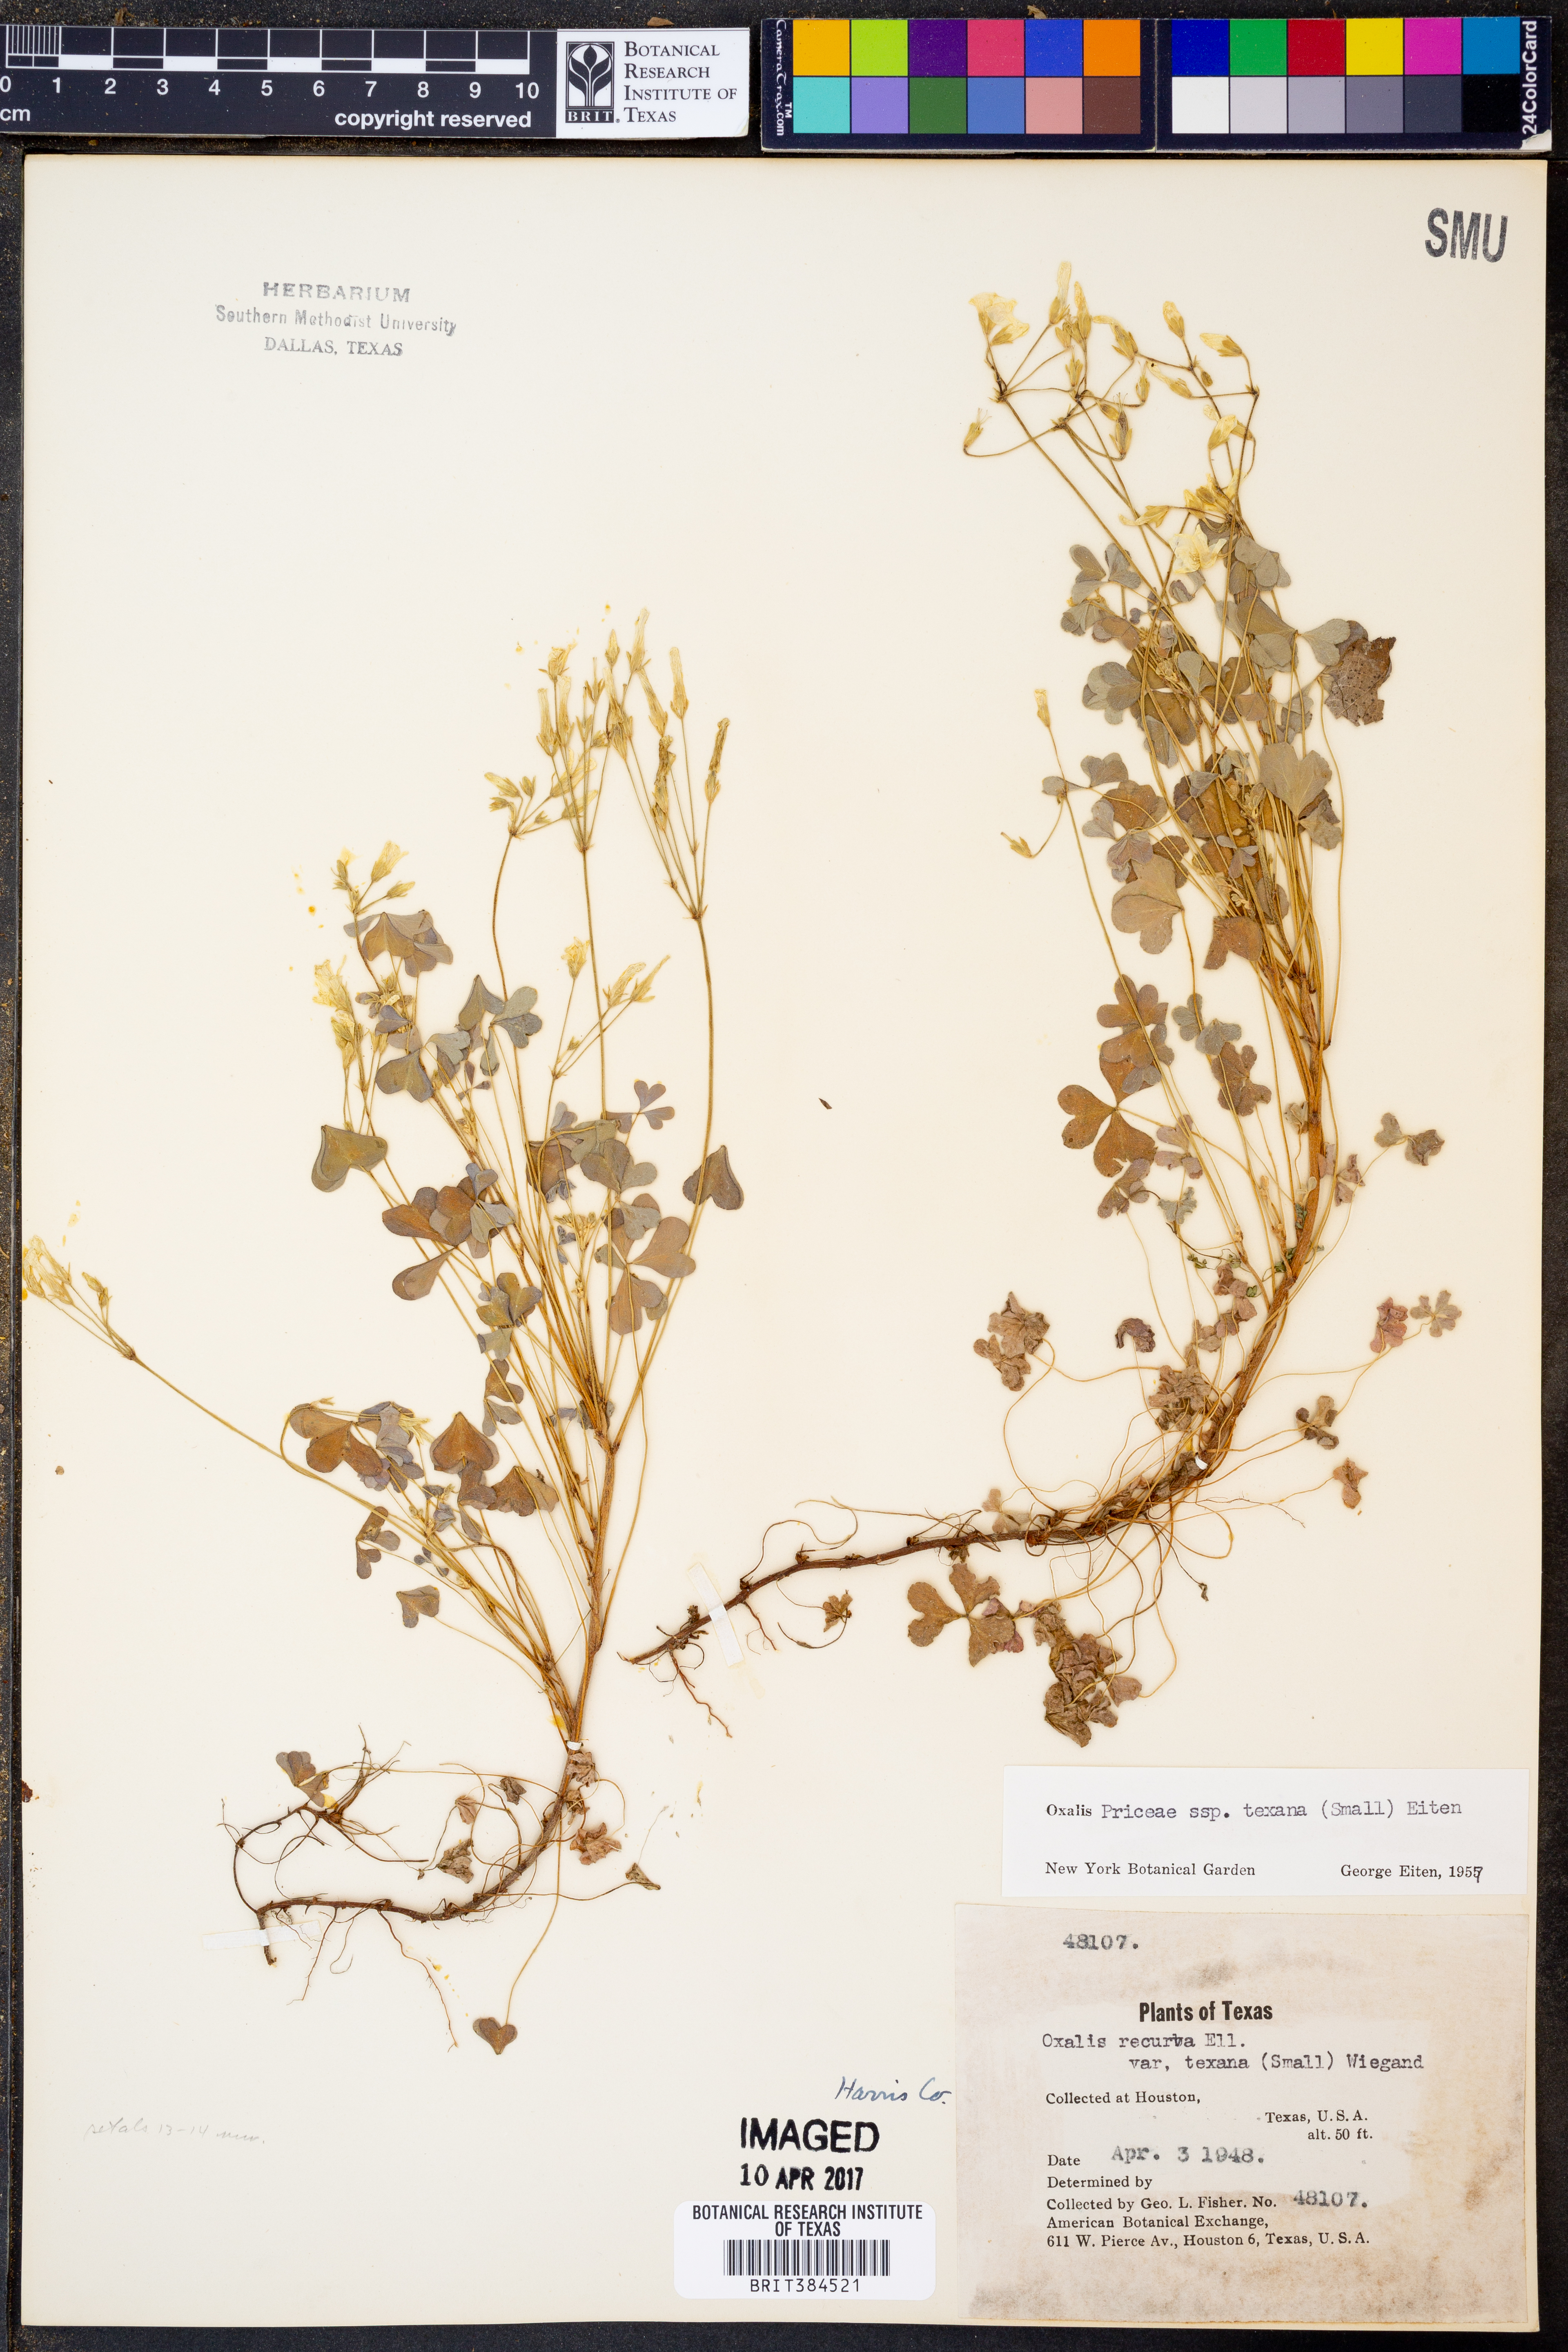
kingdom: Plantae
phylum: Tracheophyta
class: Magnoliopsida
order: Oxalidales
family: Oxalidaceae
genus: Oxalis
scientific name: Oxalis texana
